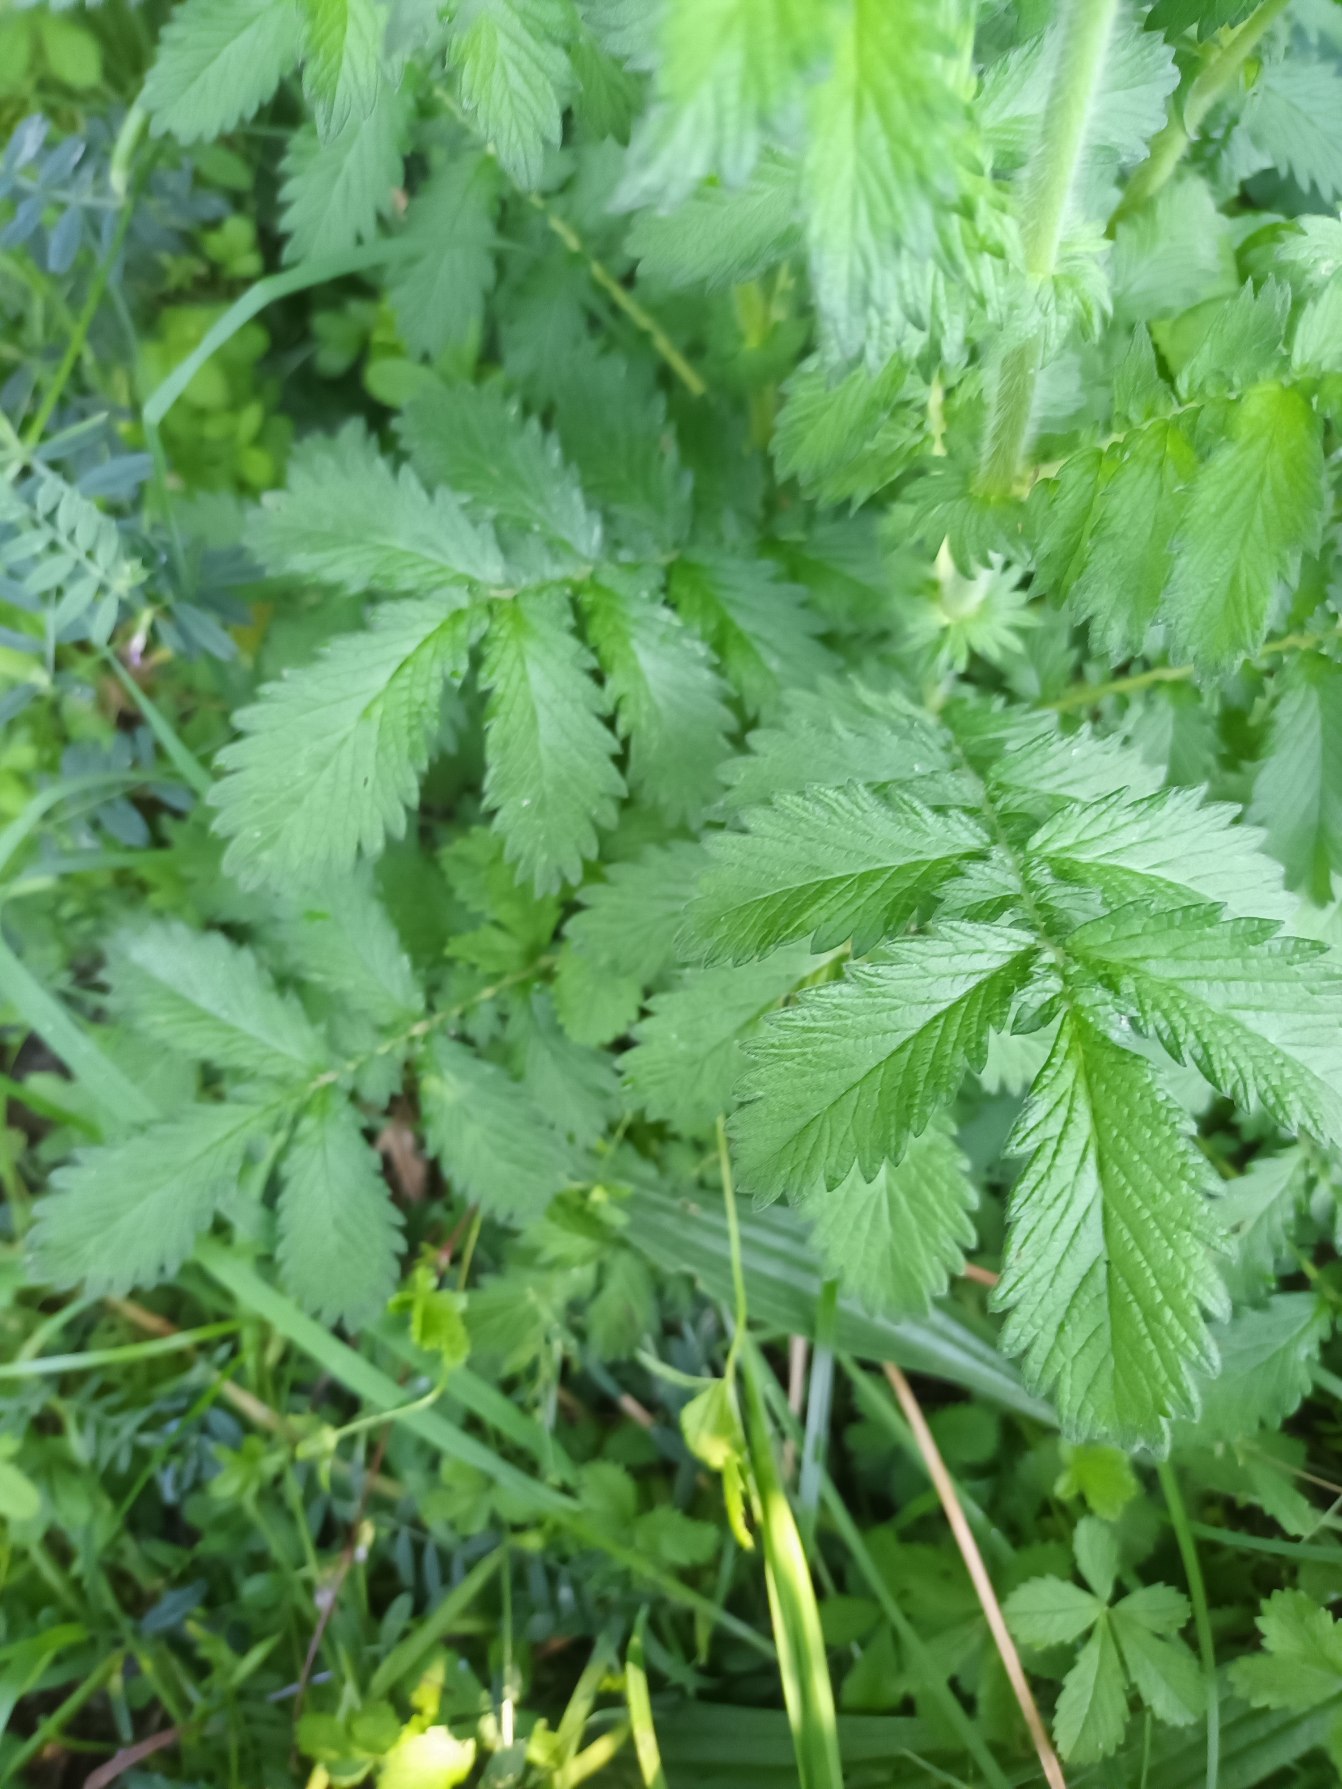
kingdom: Plantae
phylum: Tracheophyta
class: Magnoliopsida
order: Rosales
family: Rosaceae
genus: Agrimonia
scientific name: Agrimonia eupatoria
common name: Almindelig agermåne
